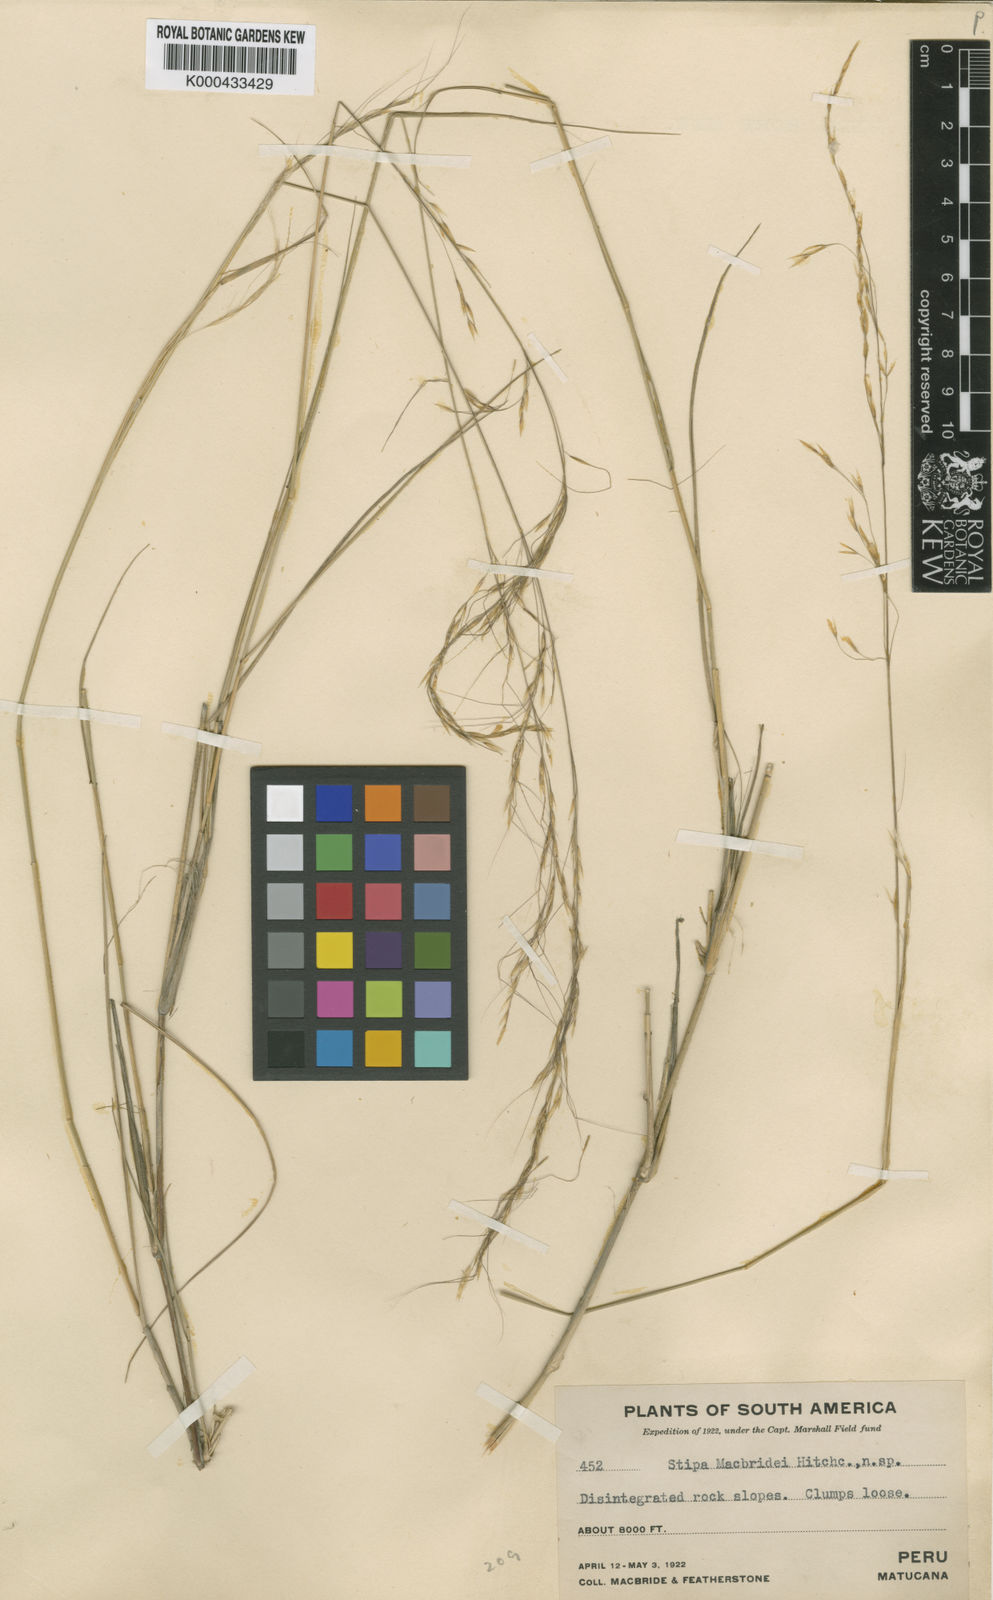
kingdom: Plantae
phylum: Tracheophyta
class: Liliopsida
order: Poales
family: Poaceae
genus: Stipa
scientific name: Stipa macbridei
